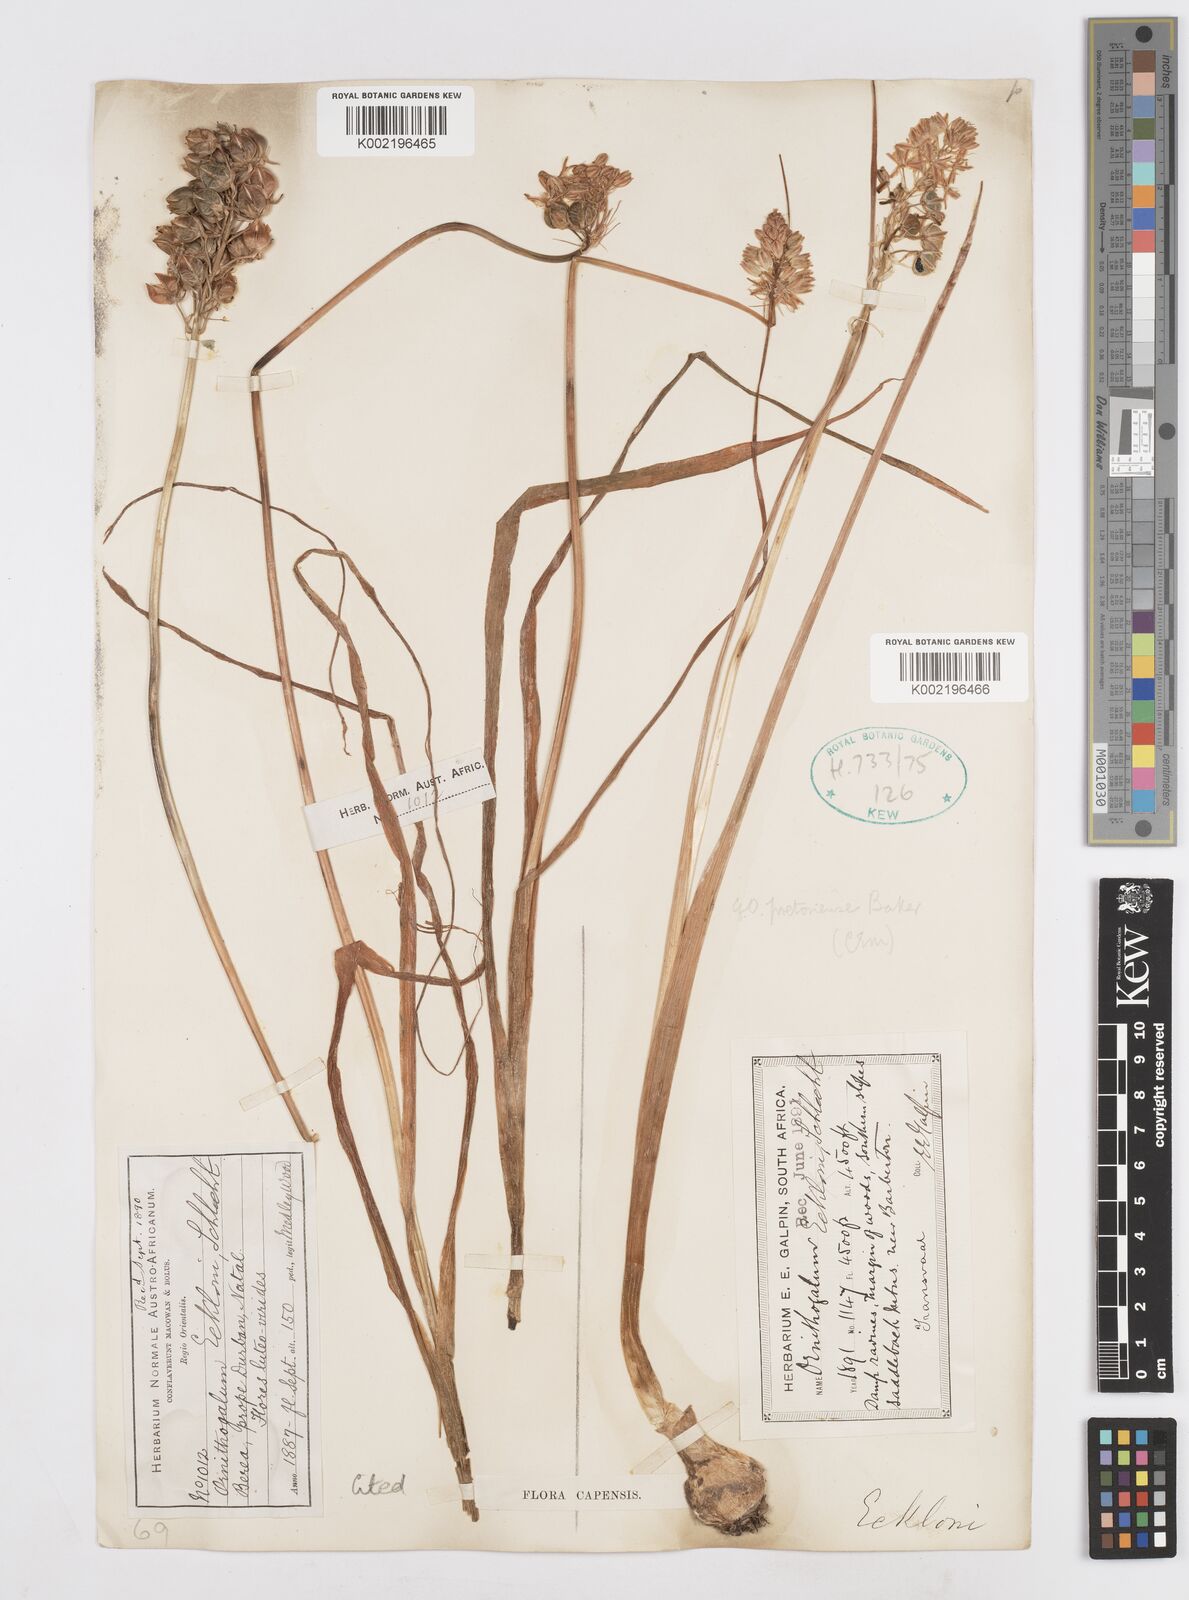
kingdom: Plantae
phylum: Tracheophyta
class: Liliopsida
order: Asparagales
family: Asparagaceae
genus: Albuca
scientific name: Albuca virens
